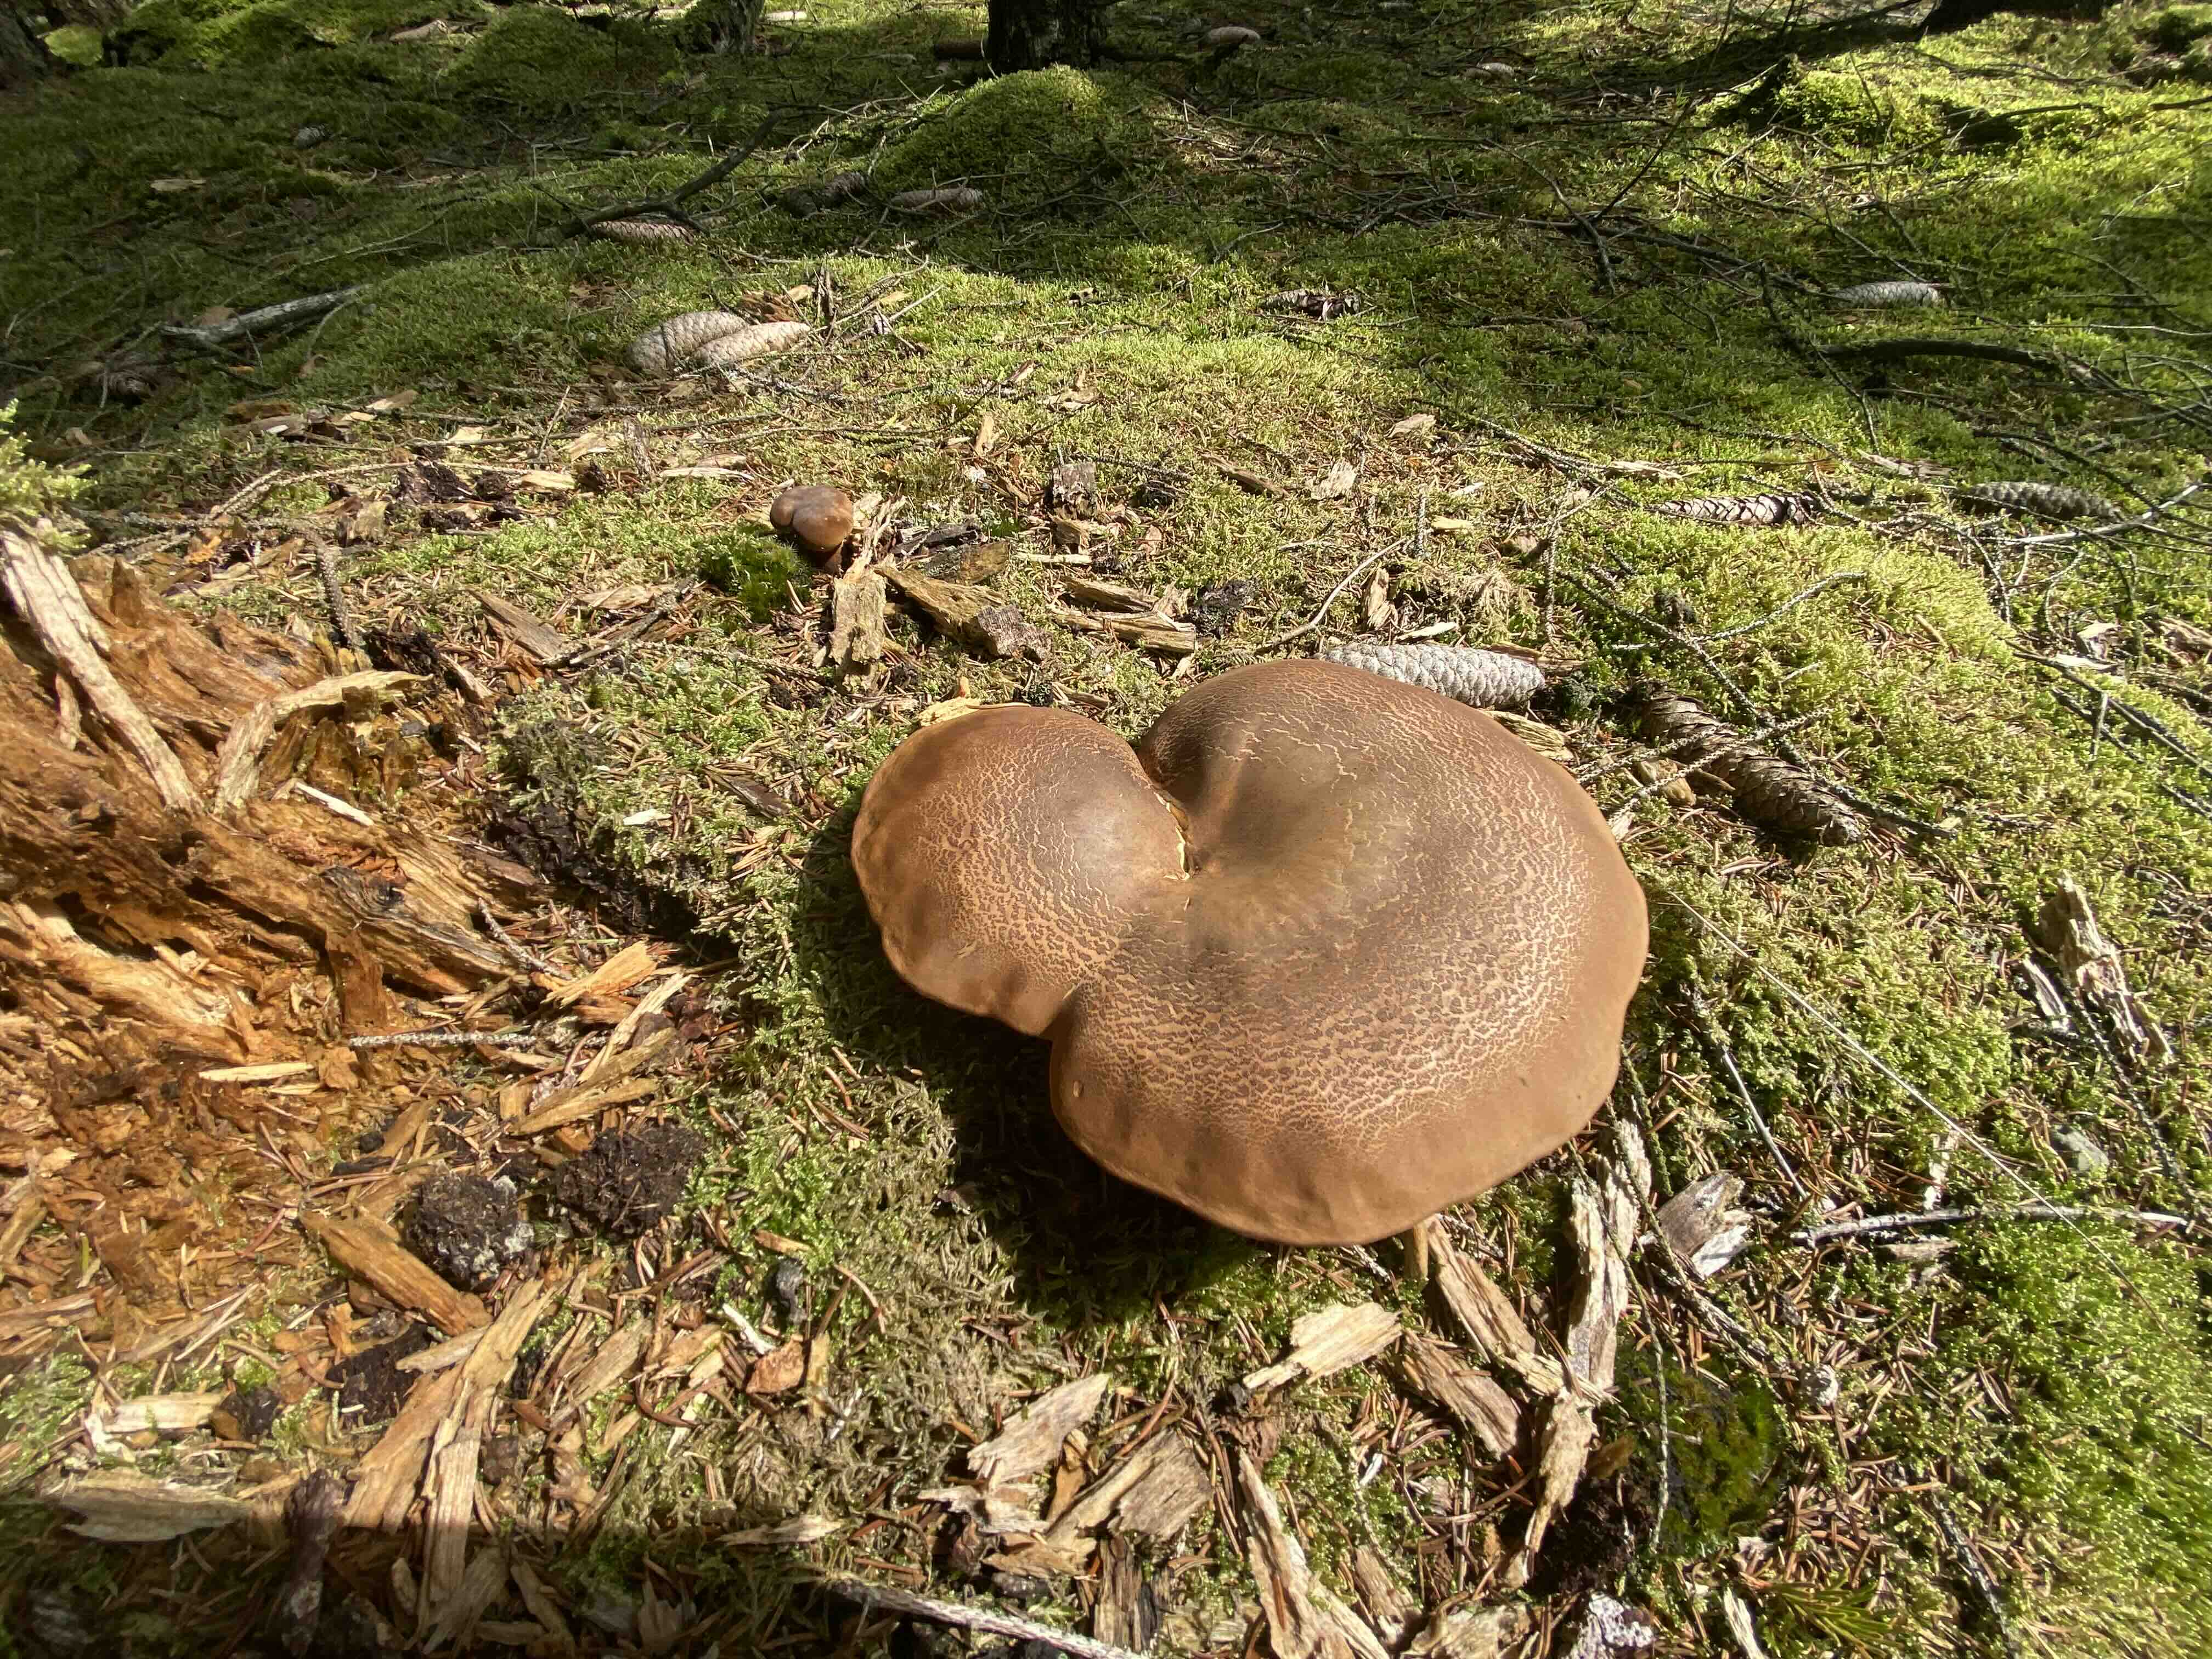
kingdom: Fungi
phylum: Basidiomycota
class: Agaricomycetes
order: Boletales
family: Tapinellaceae
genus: Tapinella
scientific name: Tapinella atrotomentosa
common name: sortfiltet viftesvamp
